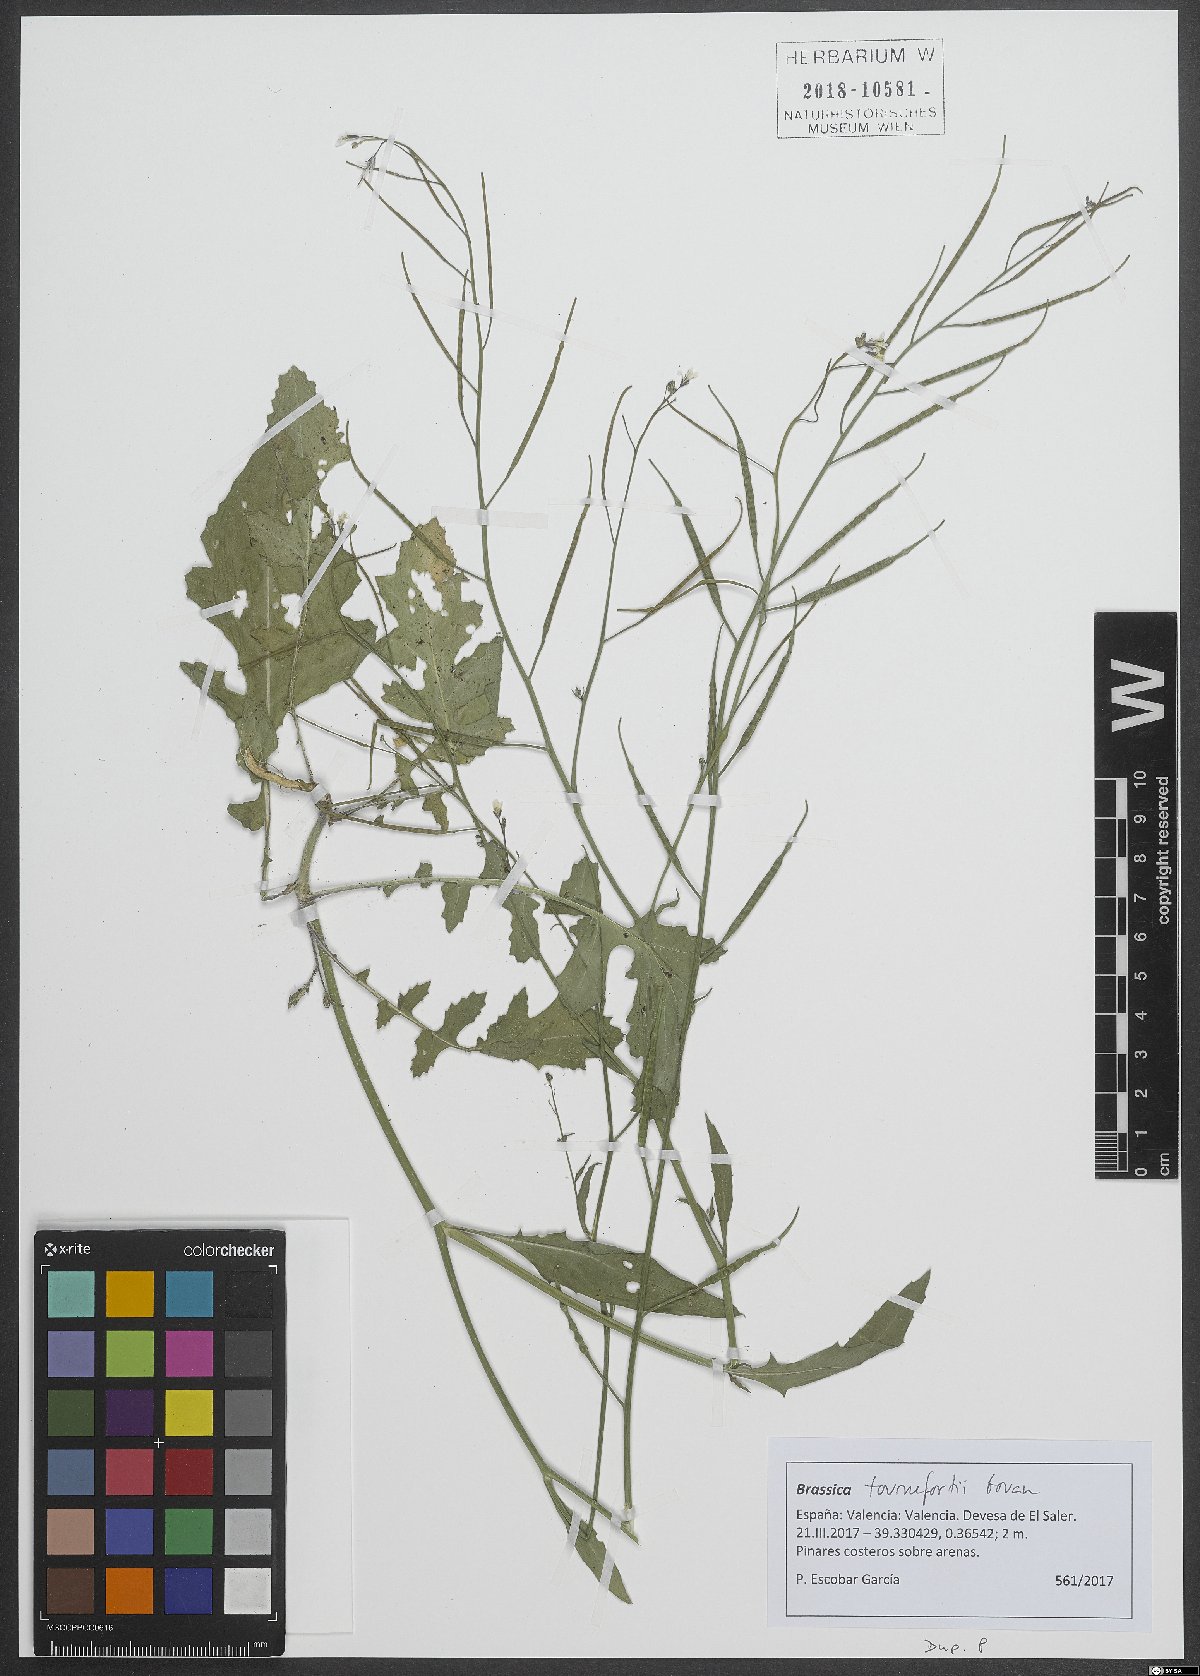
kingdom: Plantae
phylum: Tracheophyta
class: Magnoliopsida
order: Brassicales
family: Brassicaceae
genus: Brassica
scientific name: Brassica tournefortii
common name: Pale cabbage
